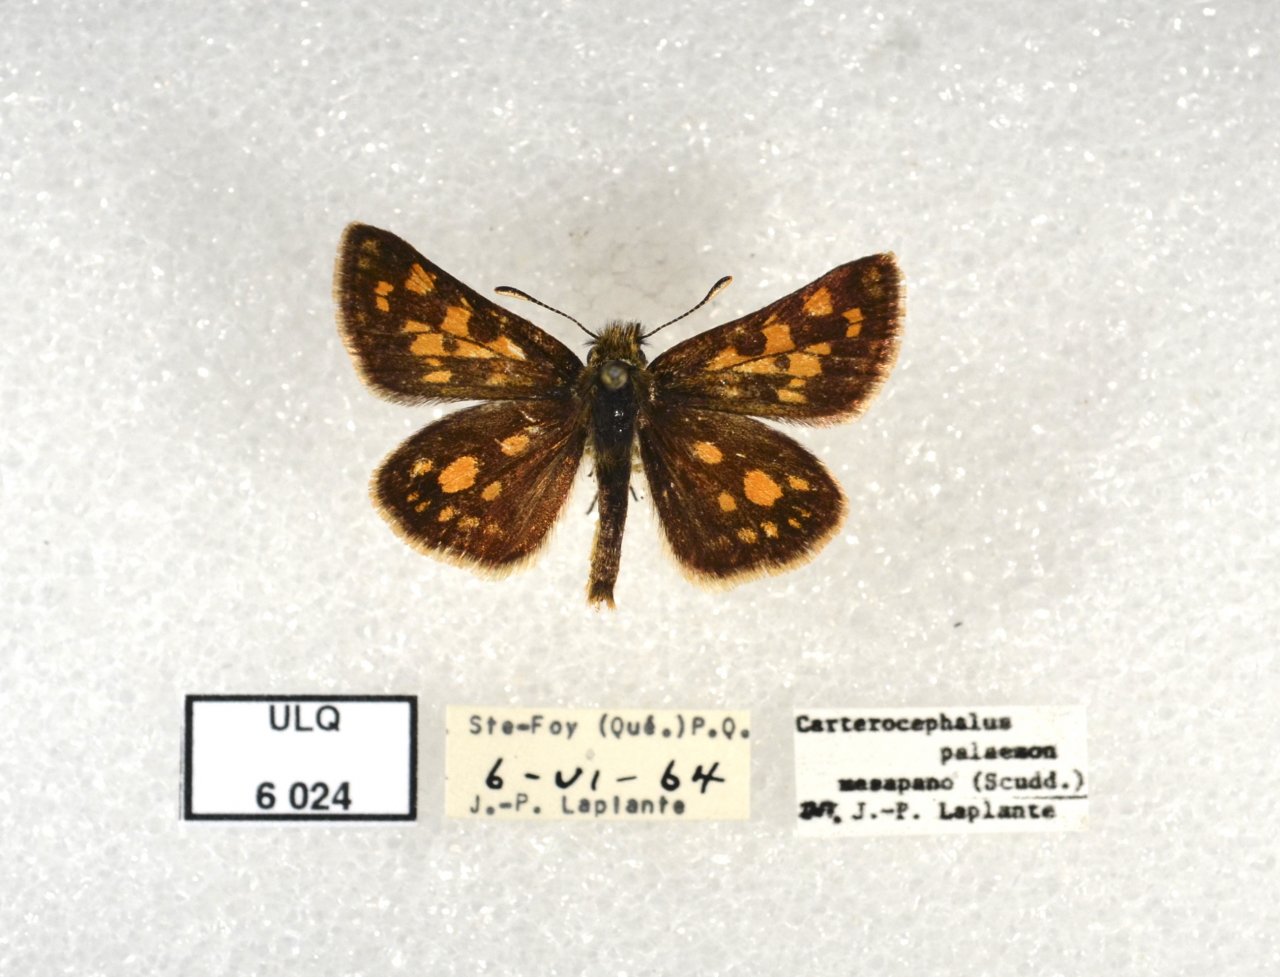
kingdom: Animalia
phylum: Arthropoda
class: Insecta
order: Lepidoptera
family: Hesperiidae
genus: Carterocephalus
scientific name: Carterocephalus palaemon
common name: Chequered Skipper
